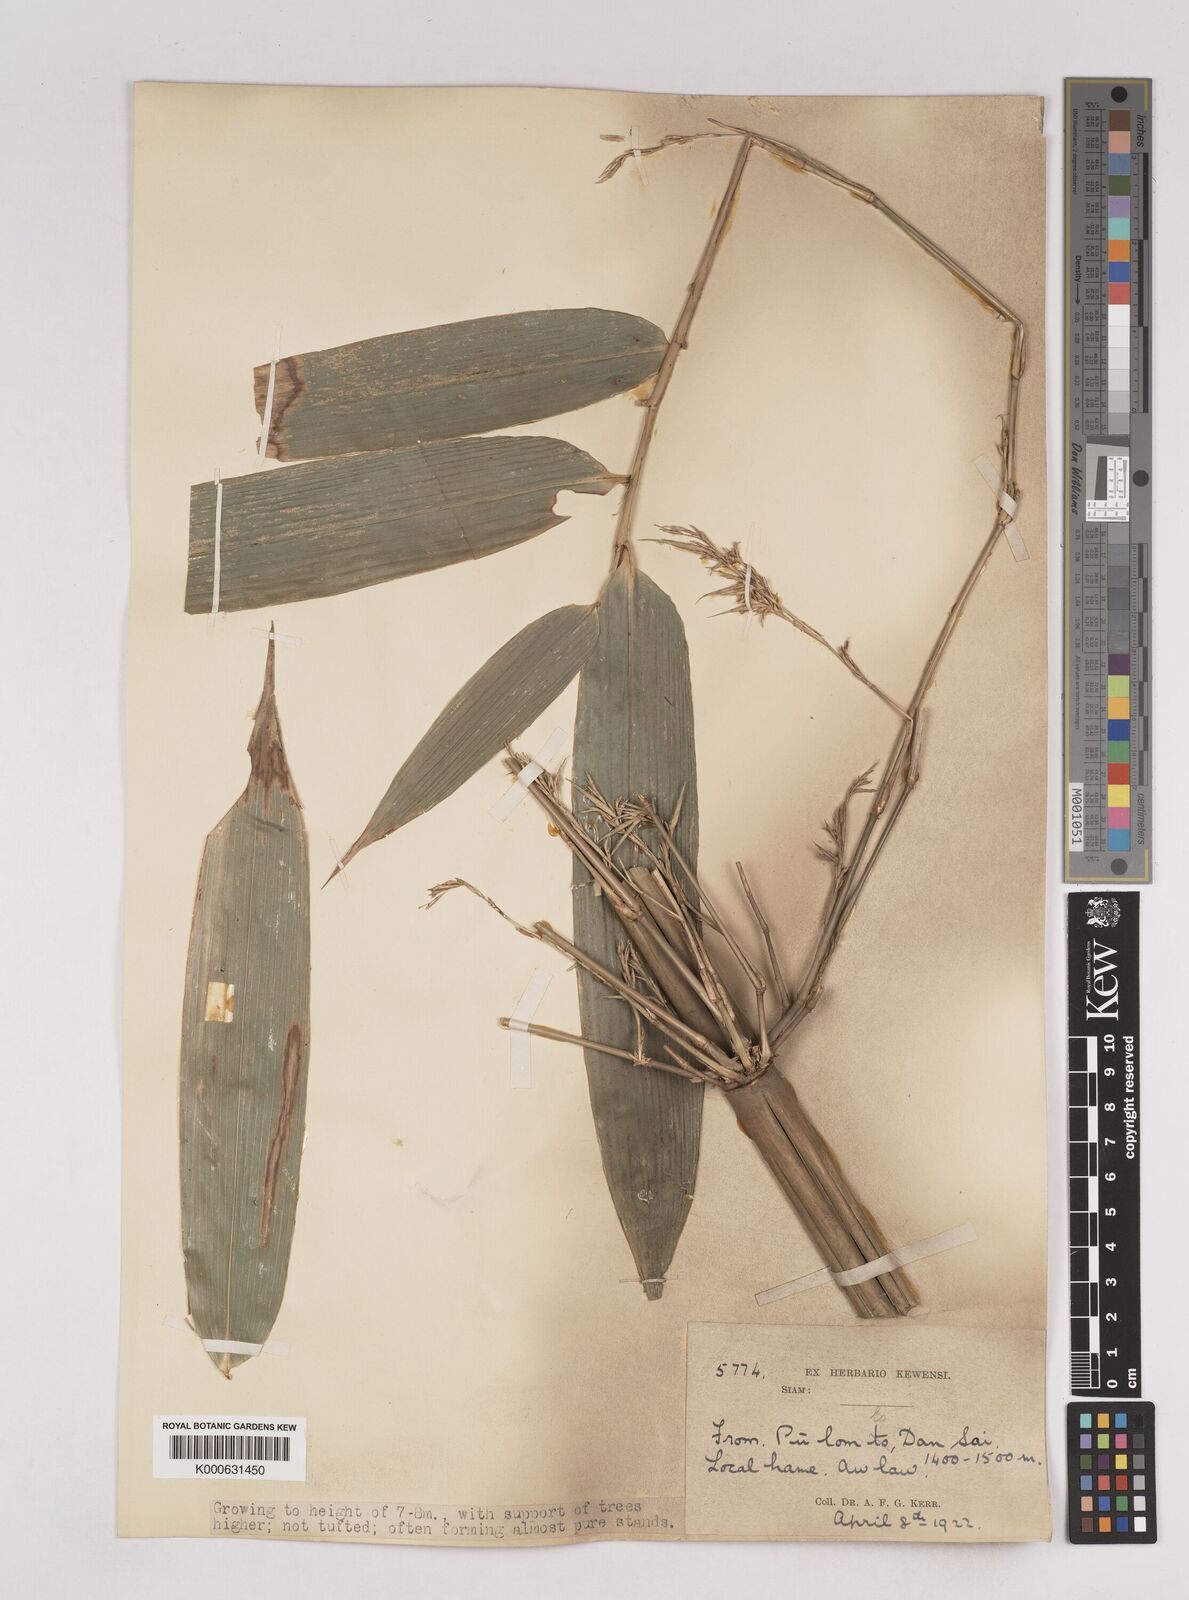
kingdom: Plantae
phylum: Tracheophyta
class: Liliopsida
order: Poales
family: Poaceae
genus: Schizostachyum
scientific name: Schizostachyum
